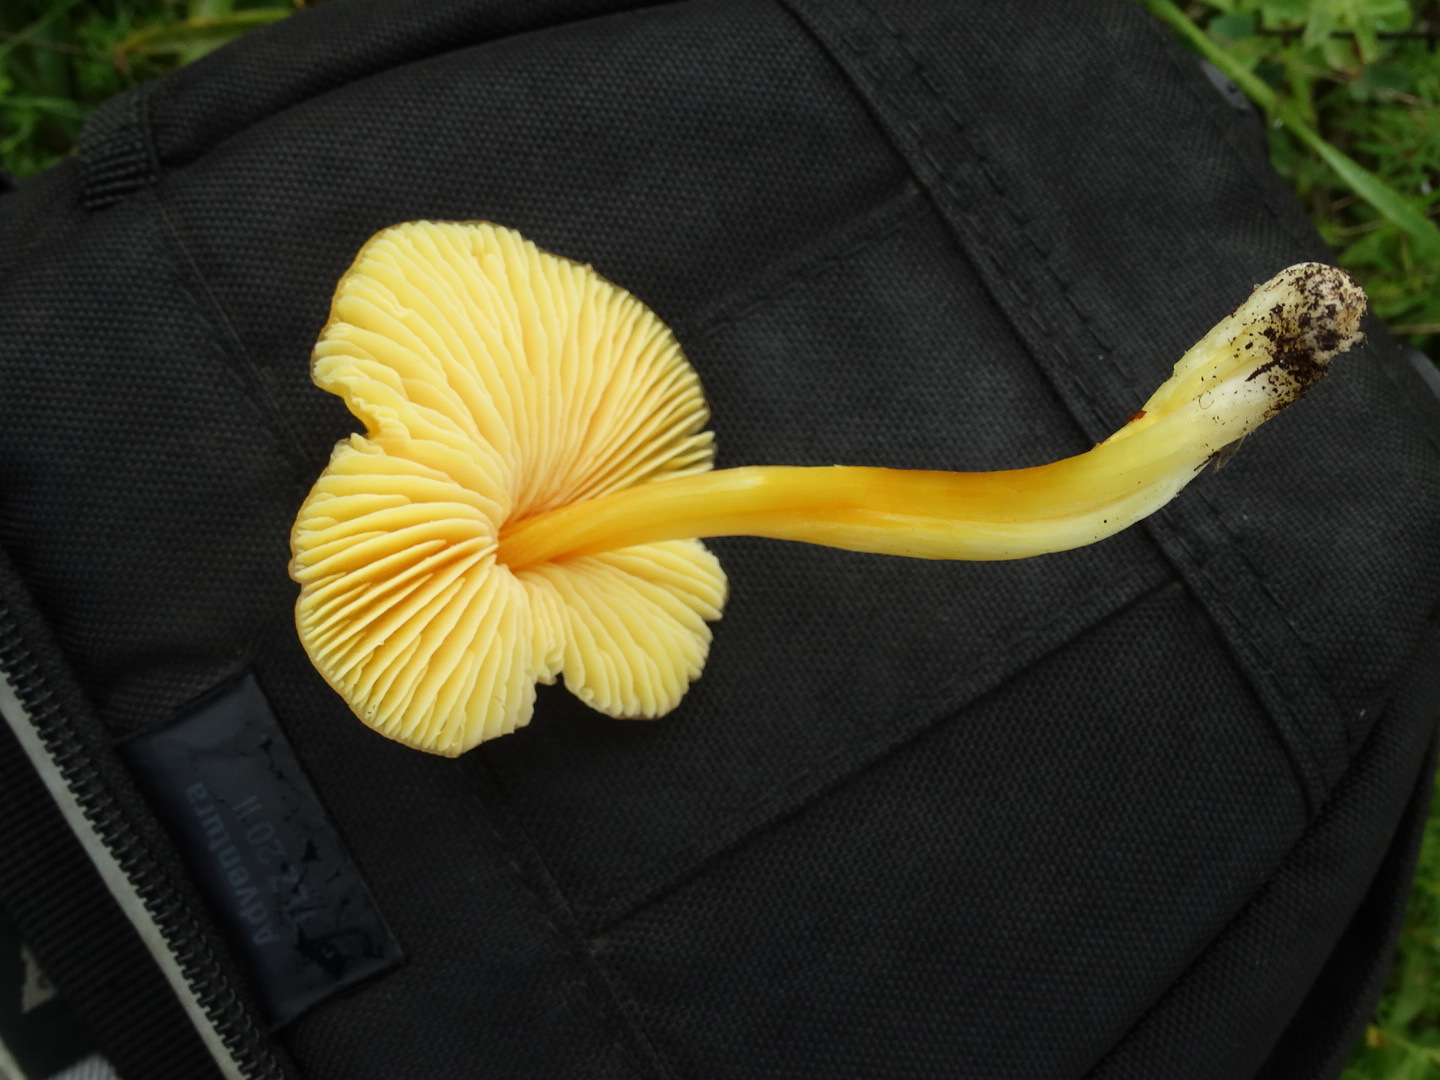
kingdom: Fungi
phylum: Basidiomycota
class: Agaricomycetes
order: Agaricales
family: Hygrophoraceae
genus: Hygrocybe
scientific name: Hygrocybe acutoconica
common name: spidspuklet vokshat
